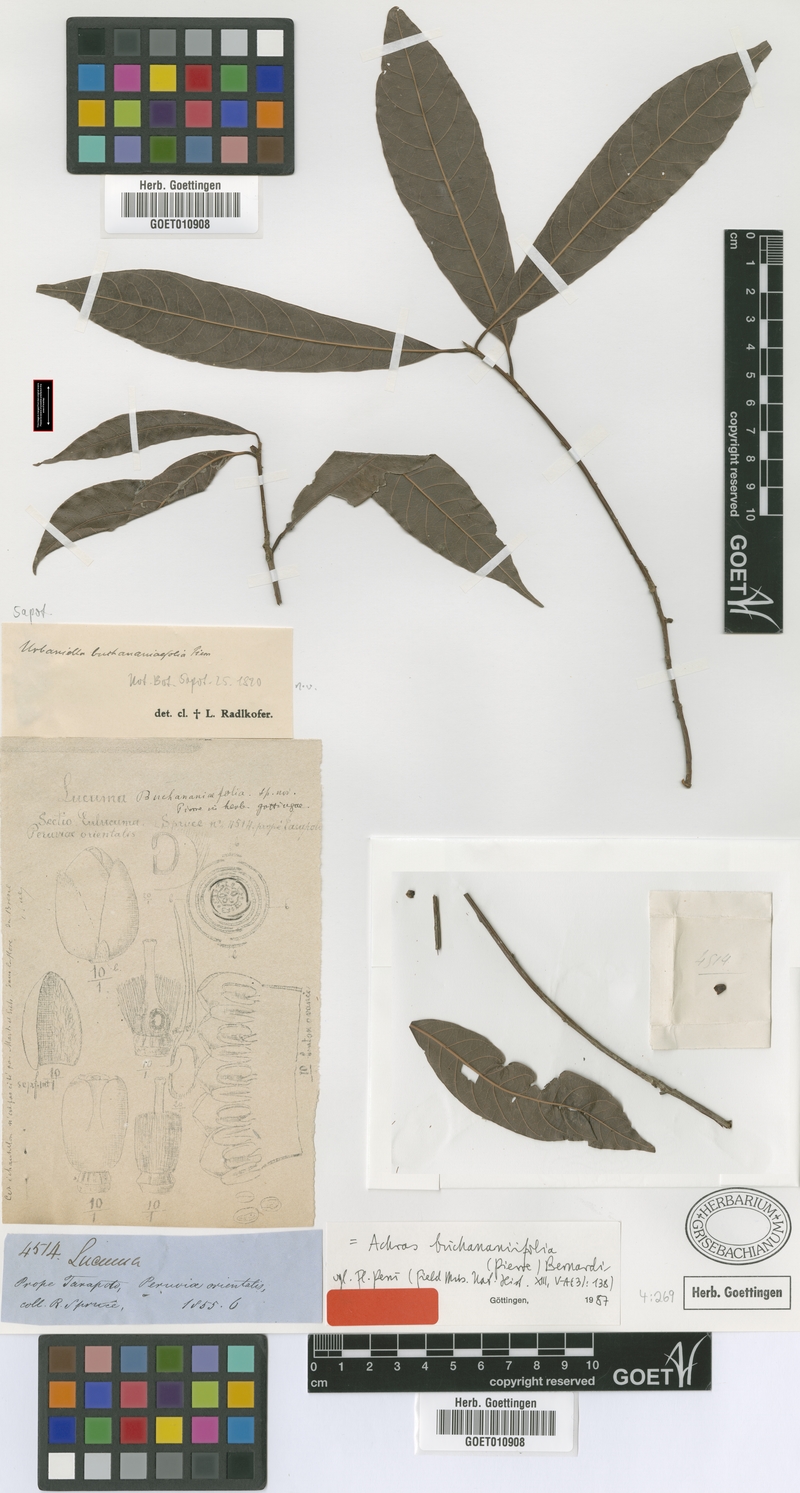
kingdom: Plantae
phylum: Tracheophyta
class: Magnoliopsida
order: Ericales
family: Sapotaceae
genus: Pouteria
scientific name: Pouteria procera
